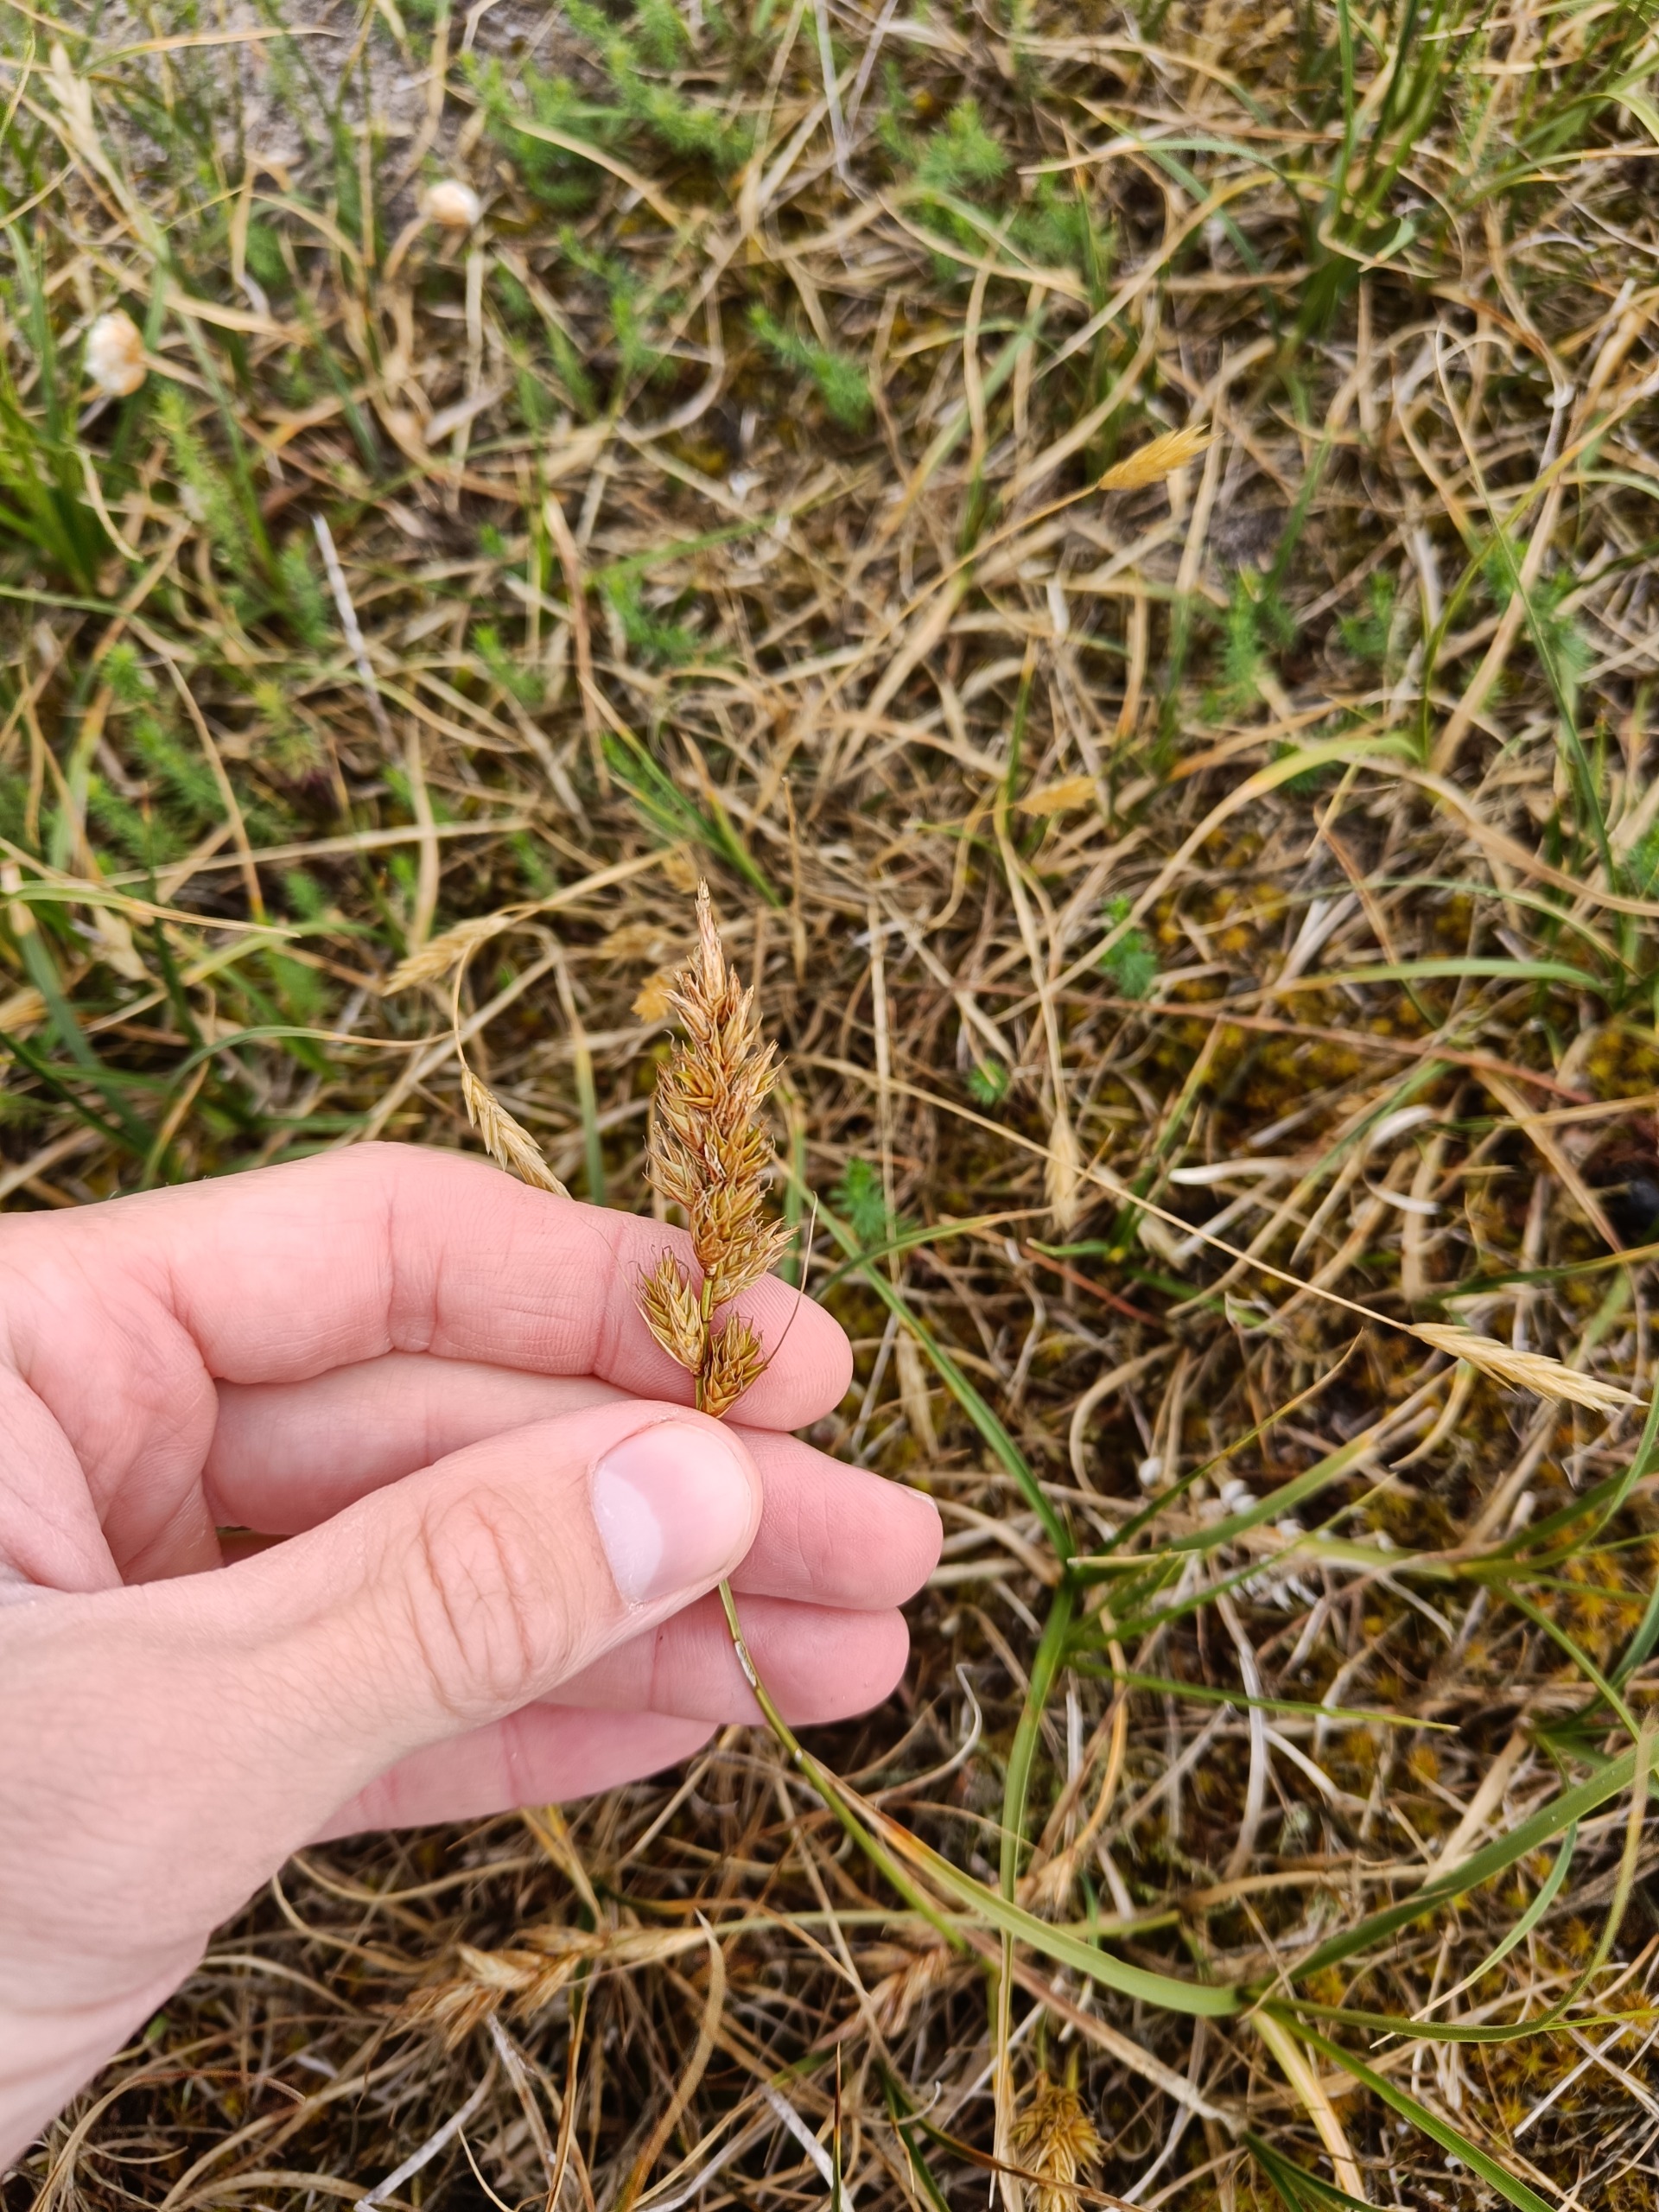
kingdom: Plantae
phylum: Tracheophyta
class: Liliopsida
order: Poales
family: Cyperaceae
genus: Carex
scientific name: Carex arenaria
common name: Sand-star
